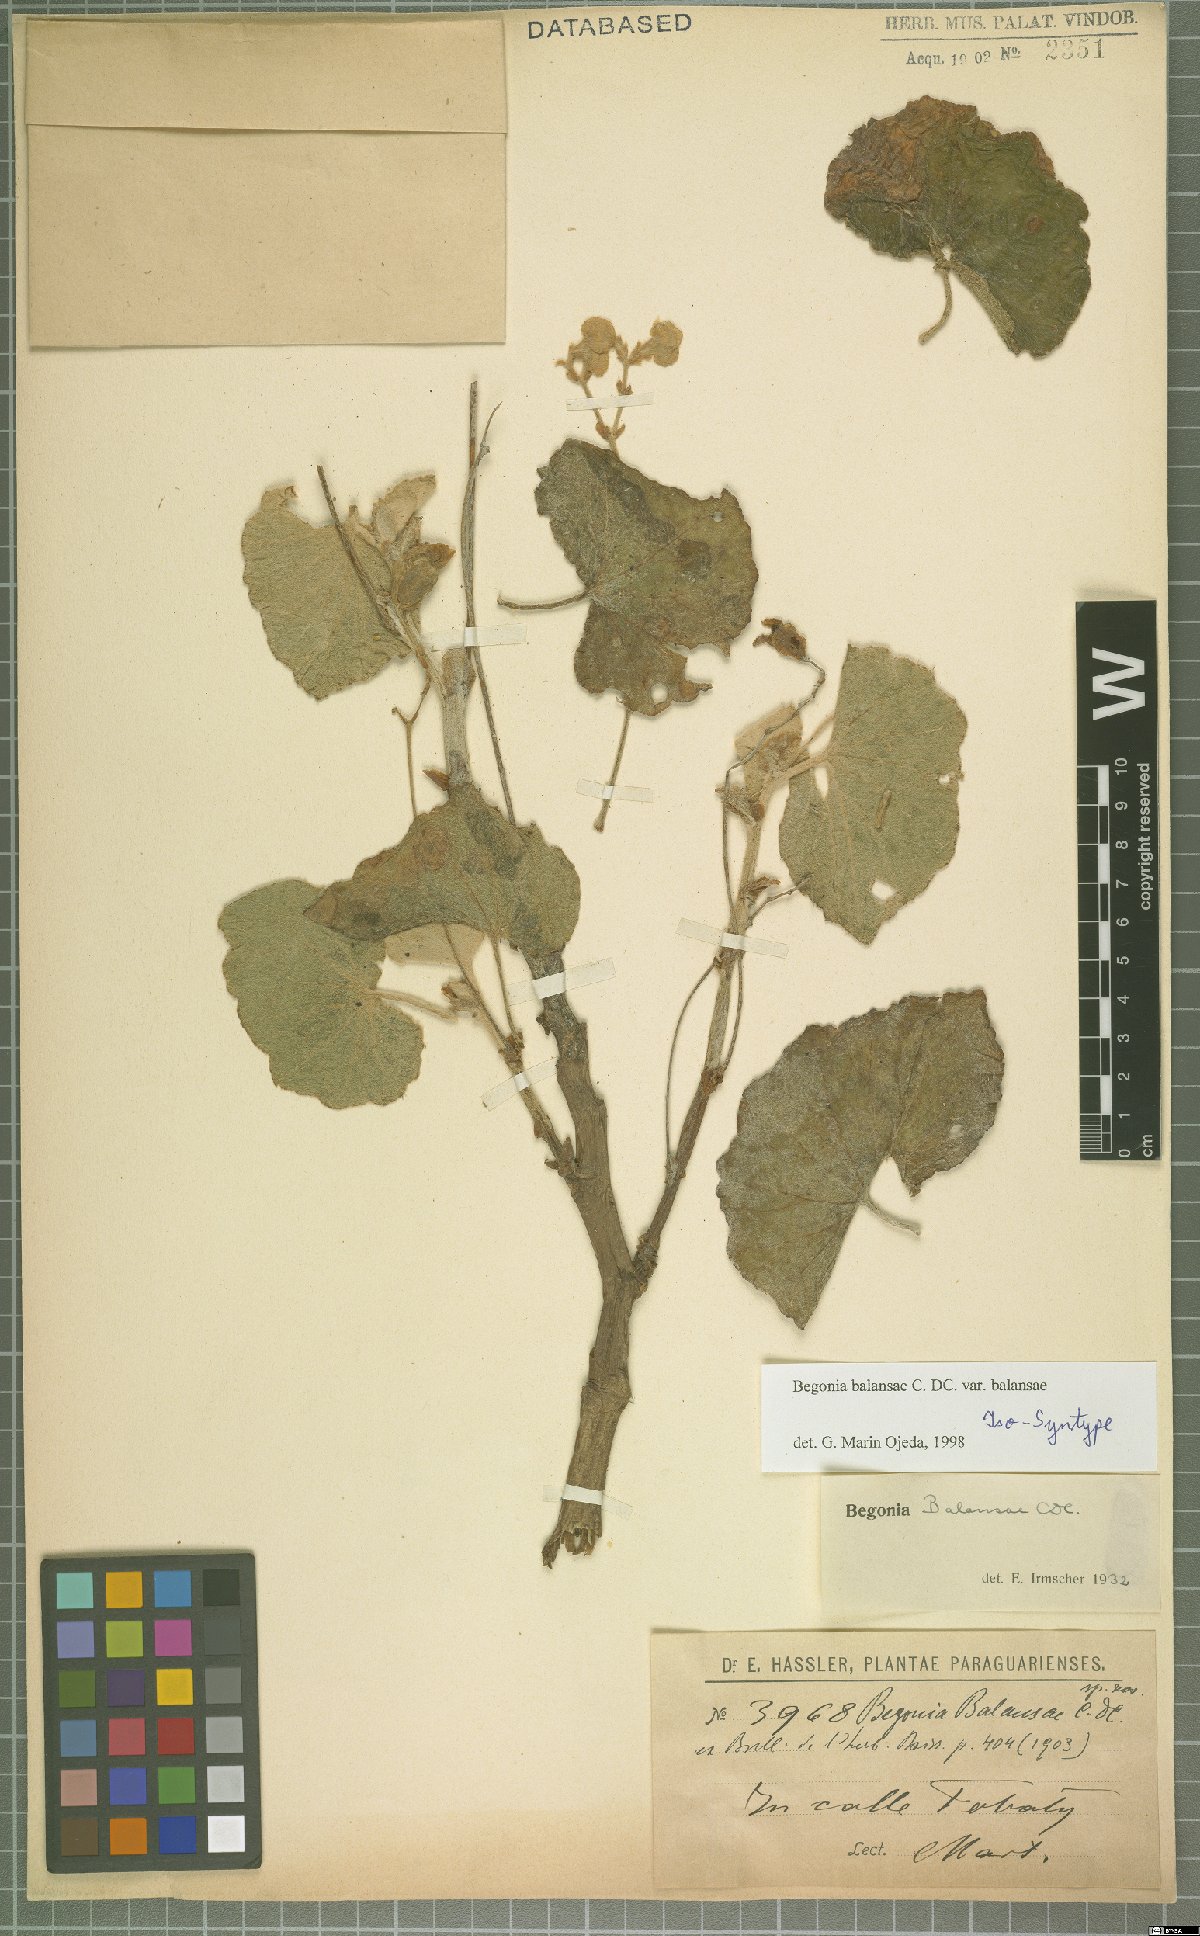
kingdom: Plantae
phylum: Tracheophyta
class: Magnoliopsida
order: Cucurbitales
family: Begoniaceae
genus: Begonia
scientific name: Begonia balansae
